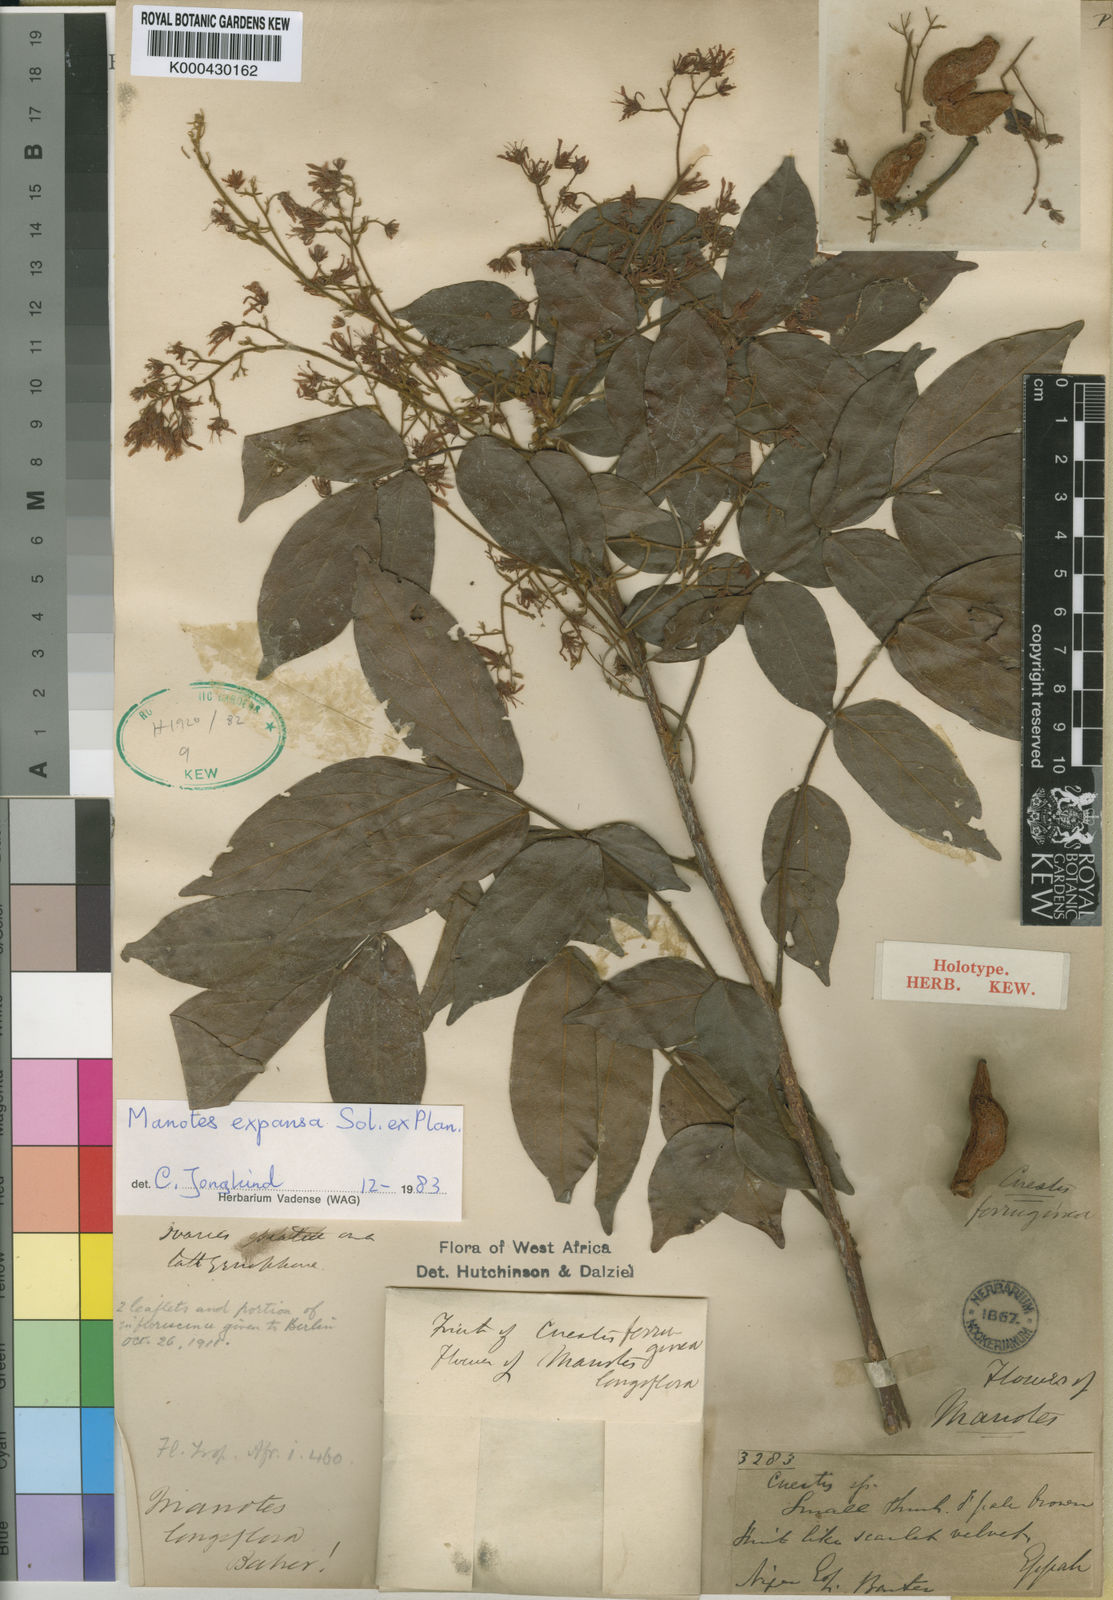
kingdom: Plantae
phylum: Tracheophyta
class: Magnoliopsida
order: Oxalidales
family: Connaraceae
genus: Manotes
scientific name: Manotes expansa
